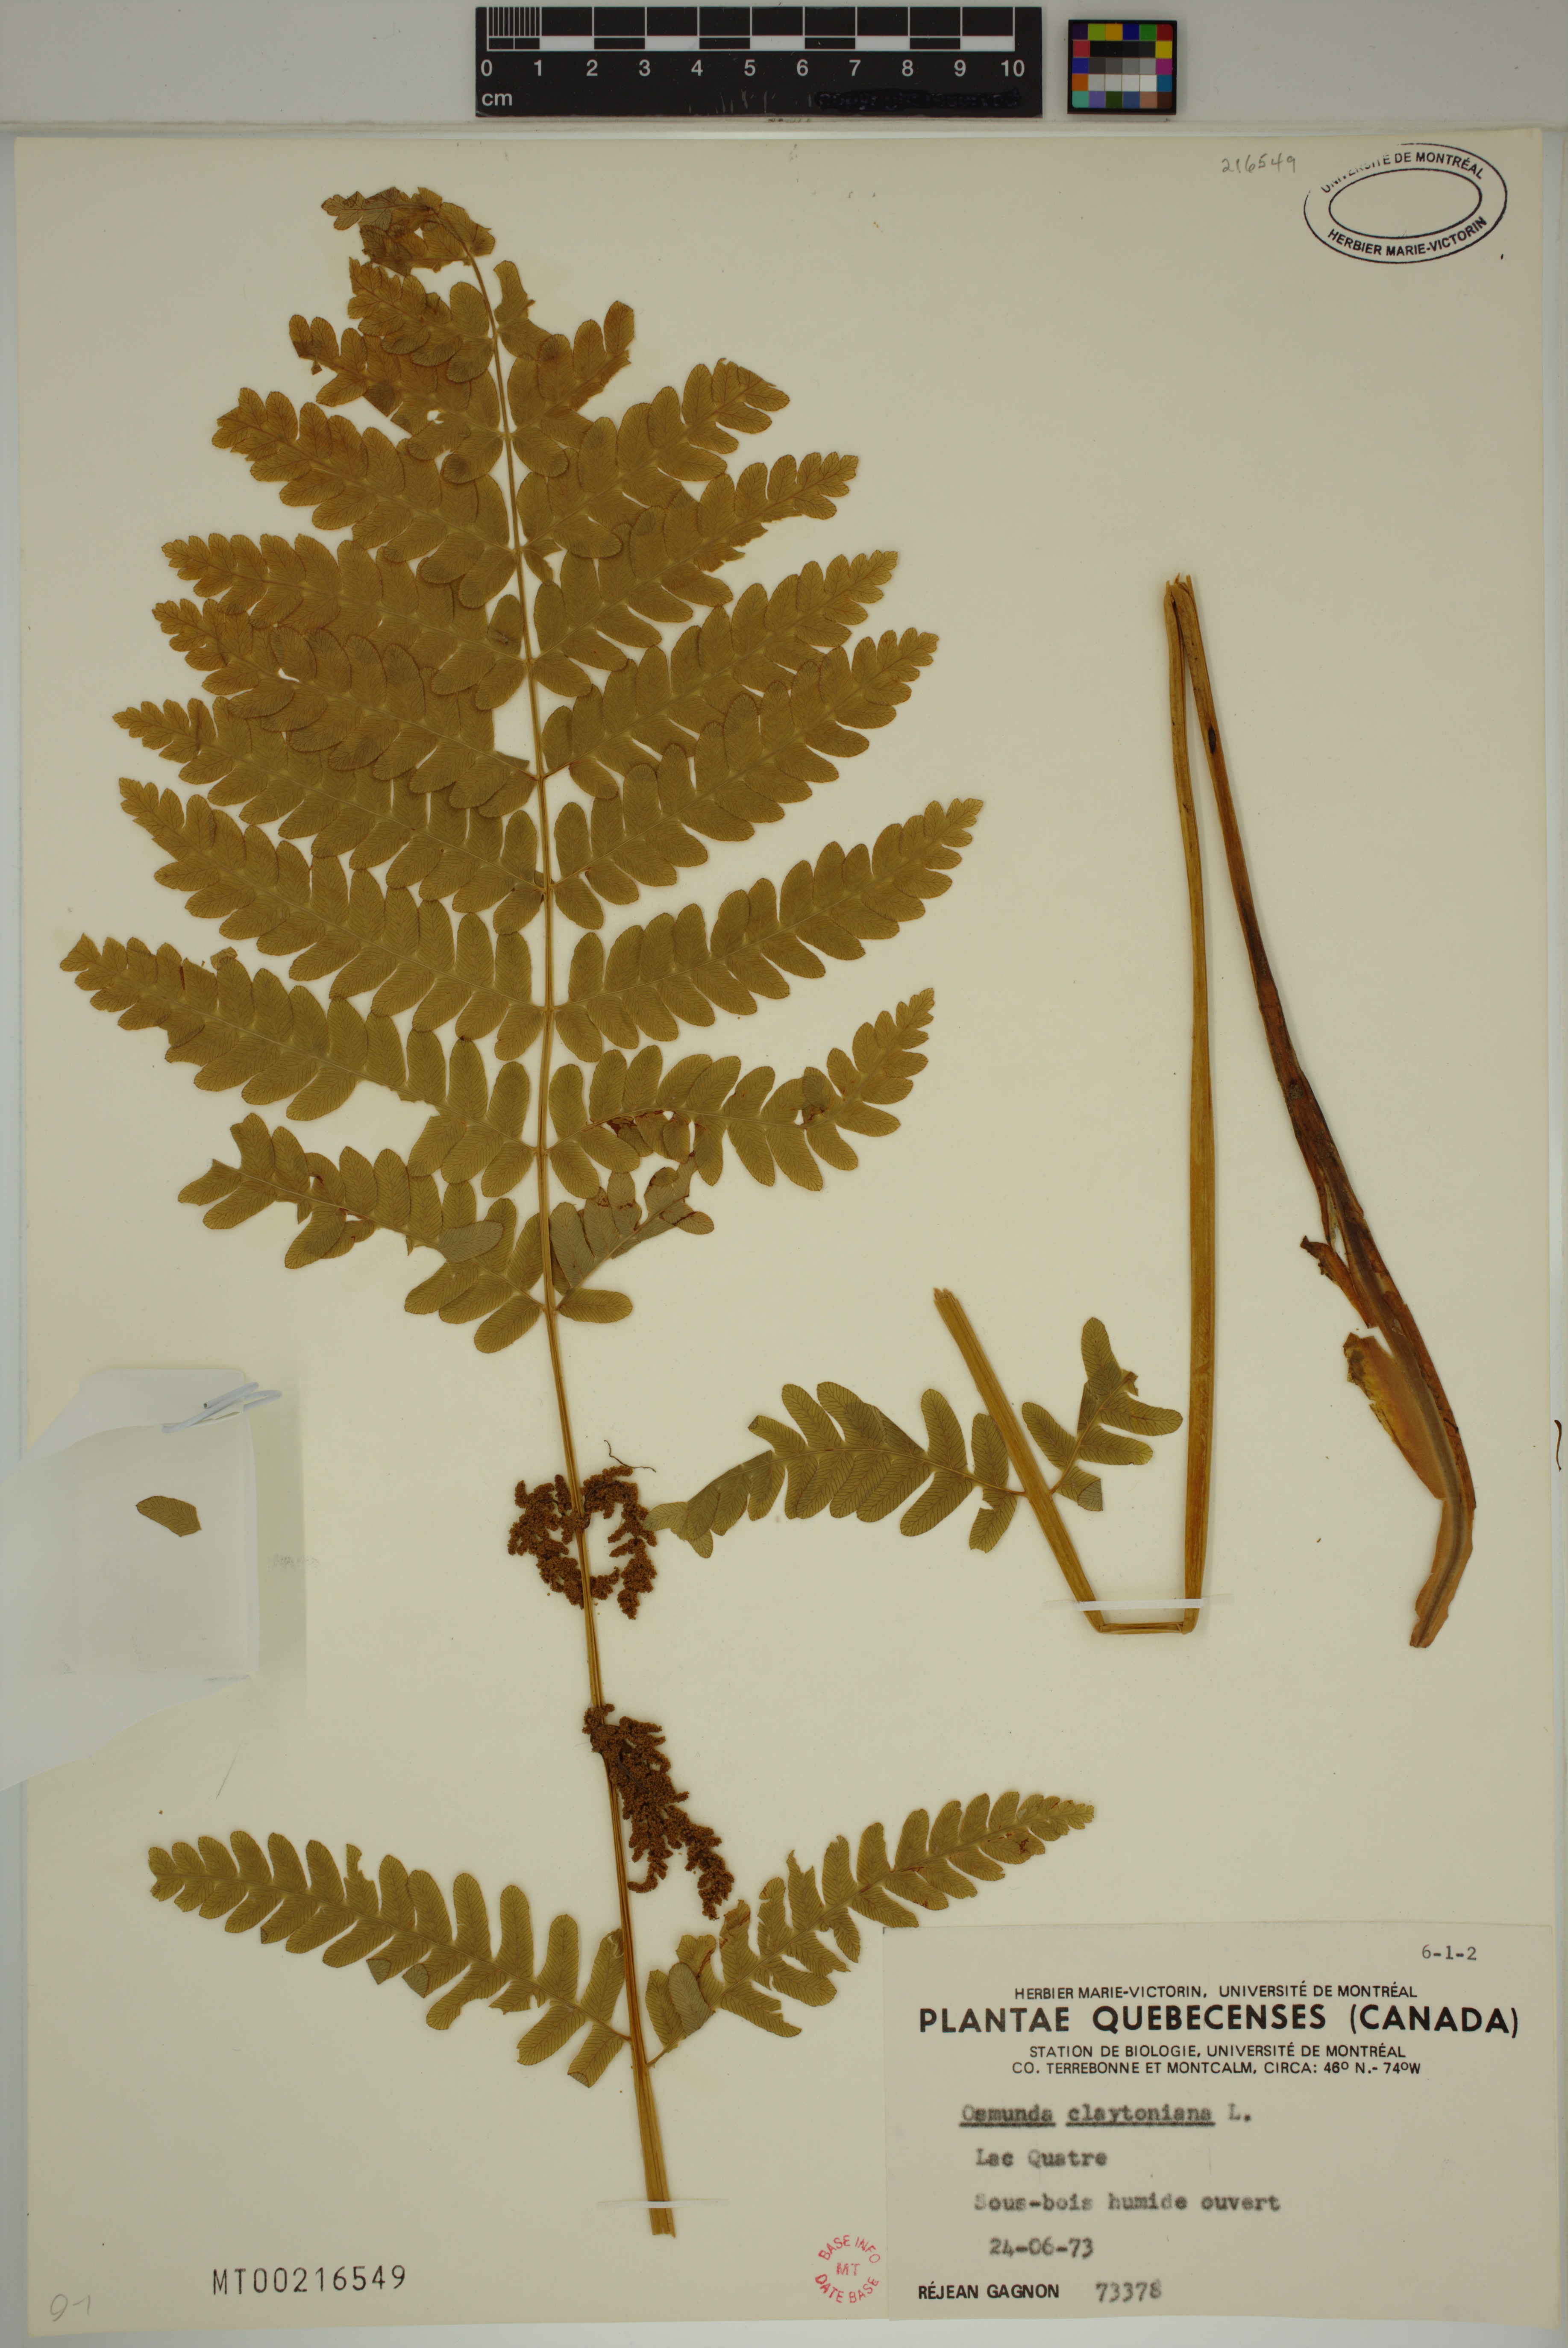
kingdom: Plantae
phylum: Tracheophyta
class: Polypodiopsida
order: Osmundales
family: Osmundaceae
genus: Claytosmunda
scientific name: Claytosmunda claytoniana
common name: Clayton's fern
